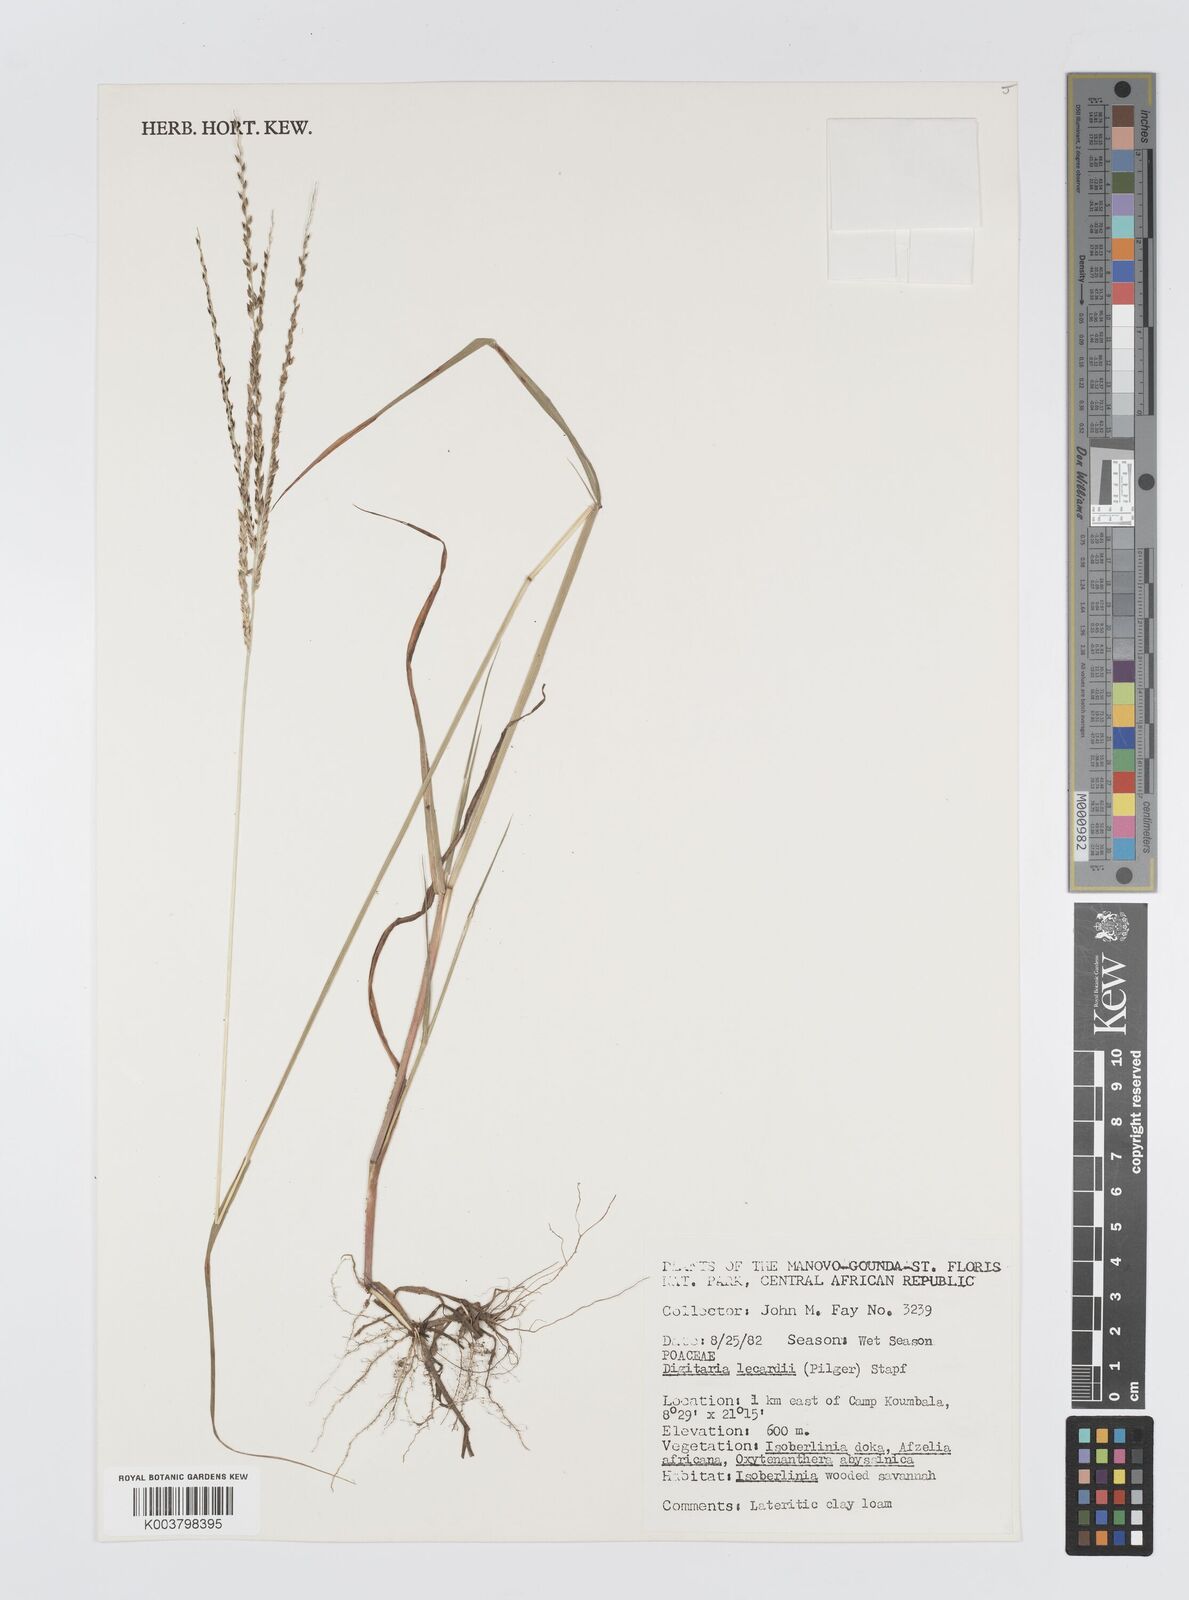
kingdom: Plantae
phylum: Tracheophyta
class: Liliopsida
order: Poales
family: Poaceae
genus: Digitaria
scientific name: Digitaria argillacea
